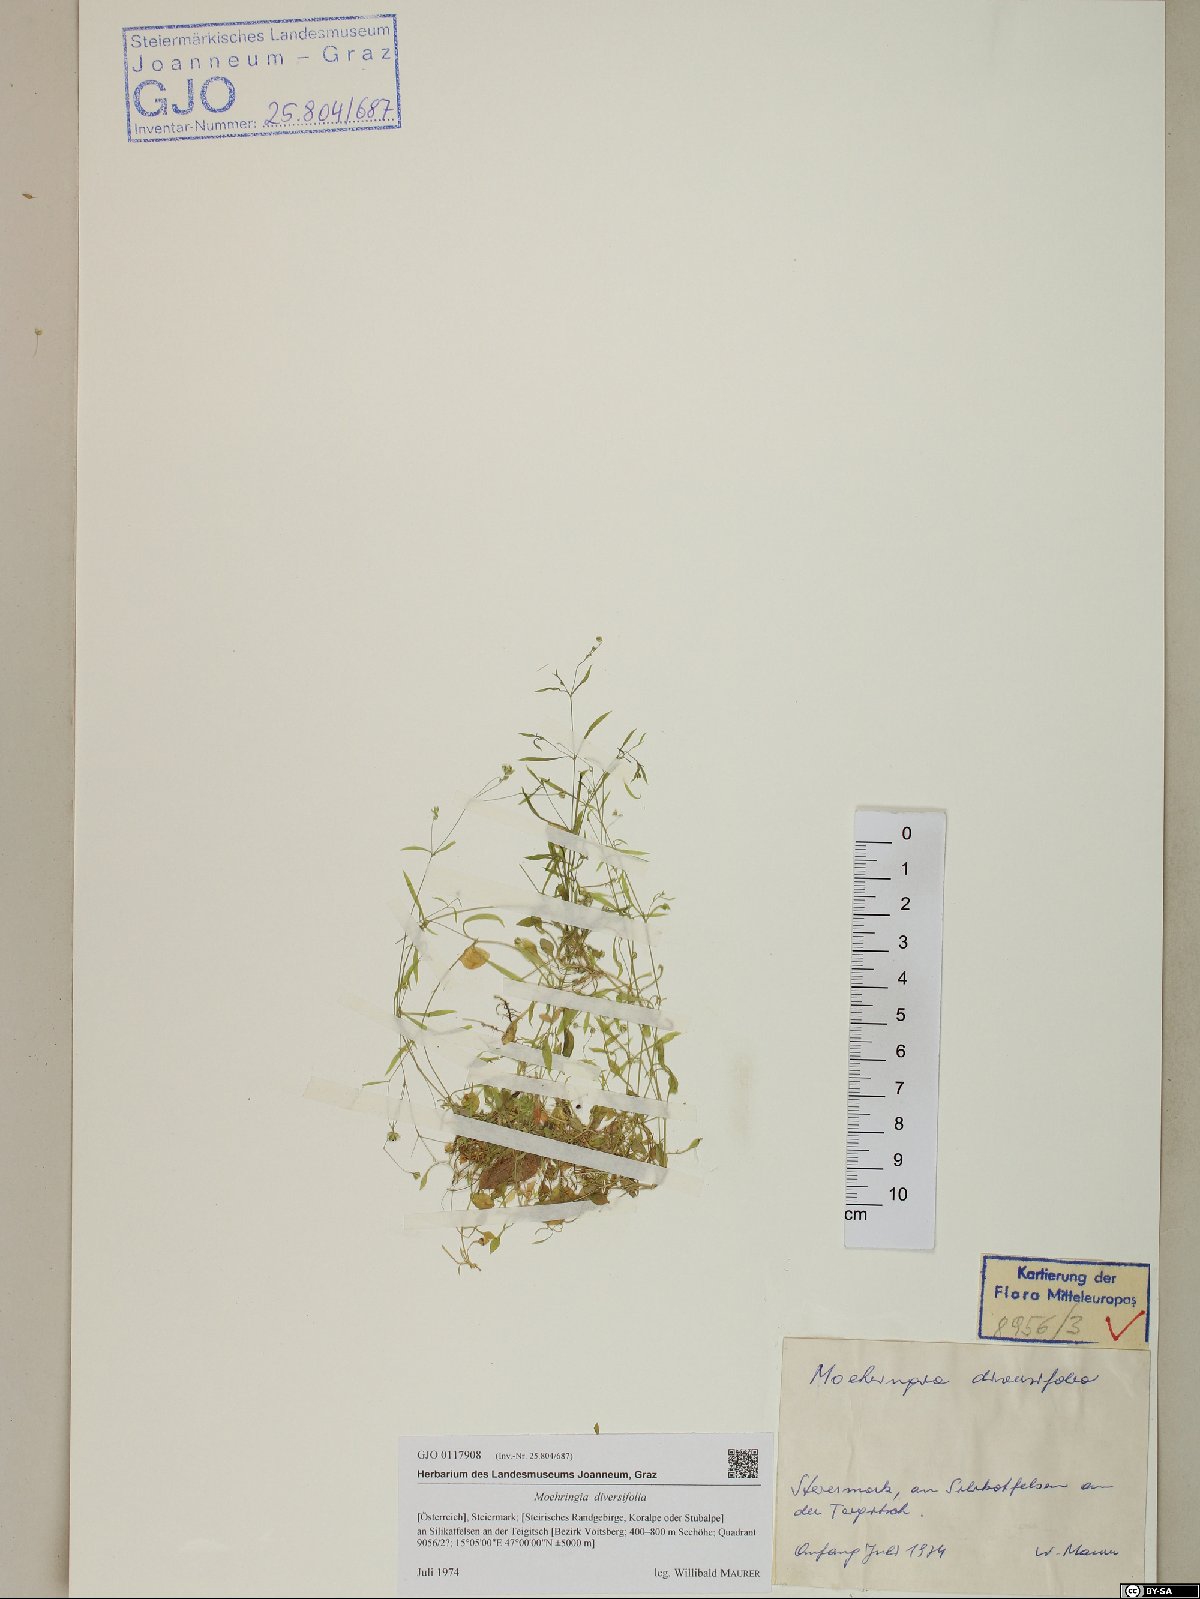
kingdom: Plantae
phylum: Tracheophyta
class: Magnoliopsida
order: Caryophyllales
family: Caryophyllaceae
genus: Moehringia
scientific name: Moehringia diversifolia
